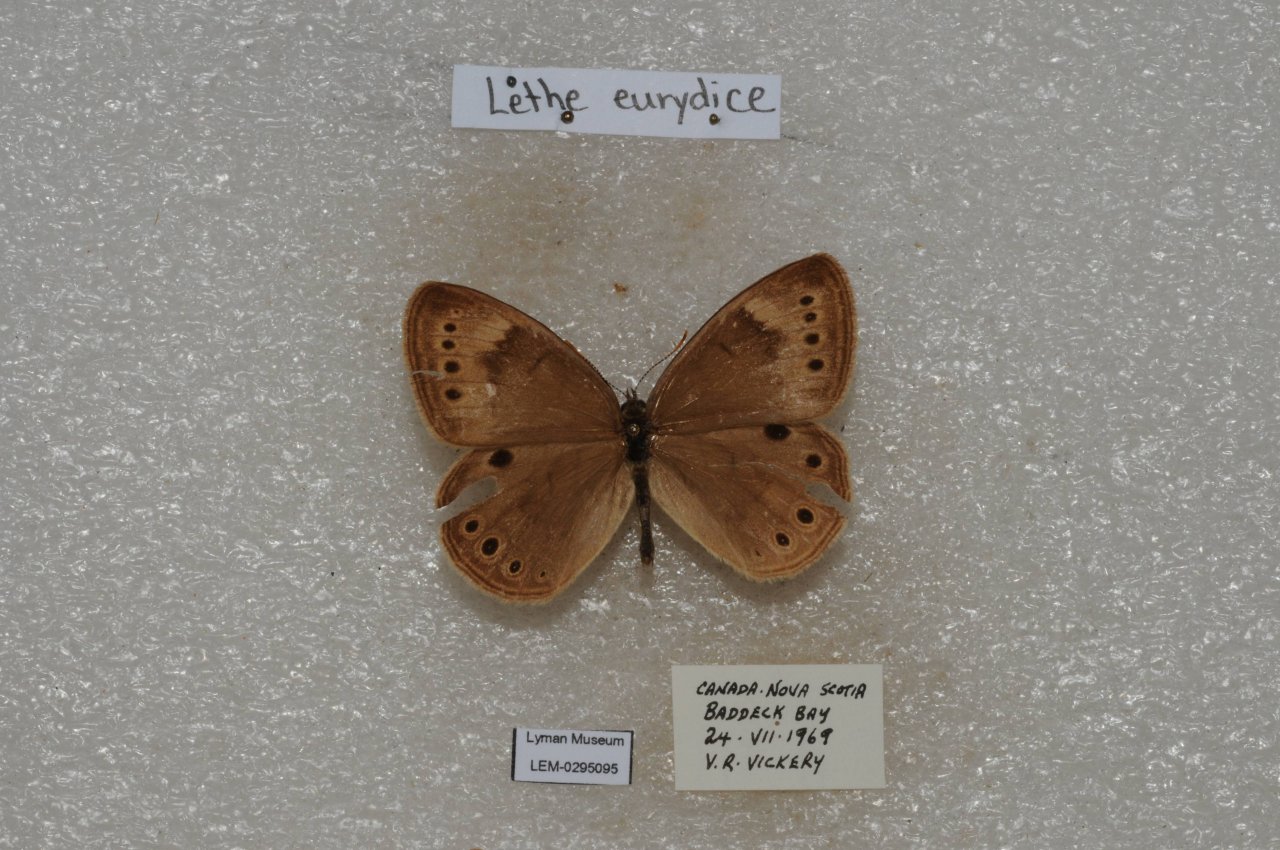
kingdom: Animalia
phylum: Arthropoda
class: Insecta
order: Lepidoptera
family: Nymphalidae
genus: Lethe
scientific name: Lethe eurydice
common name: Eyed Brown
